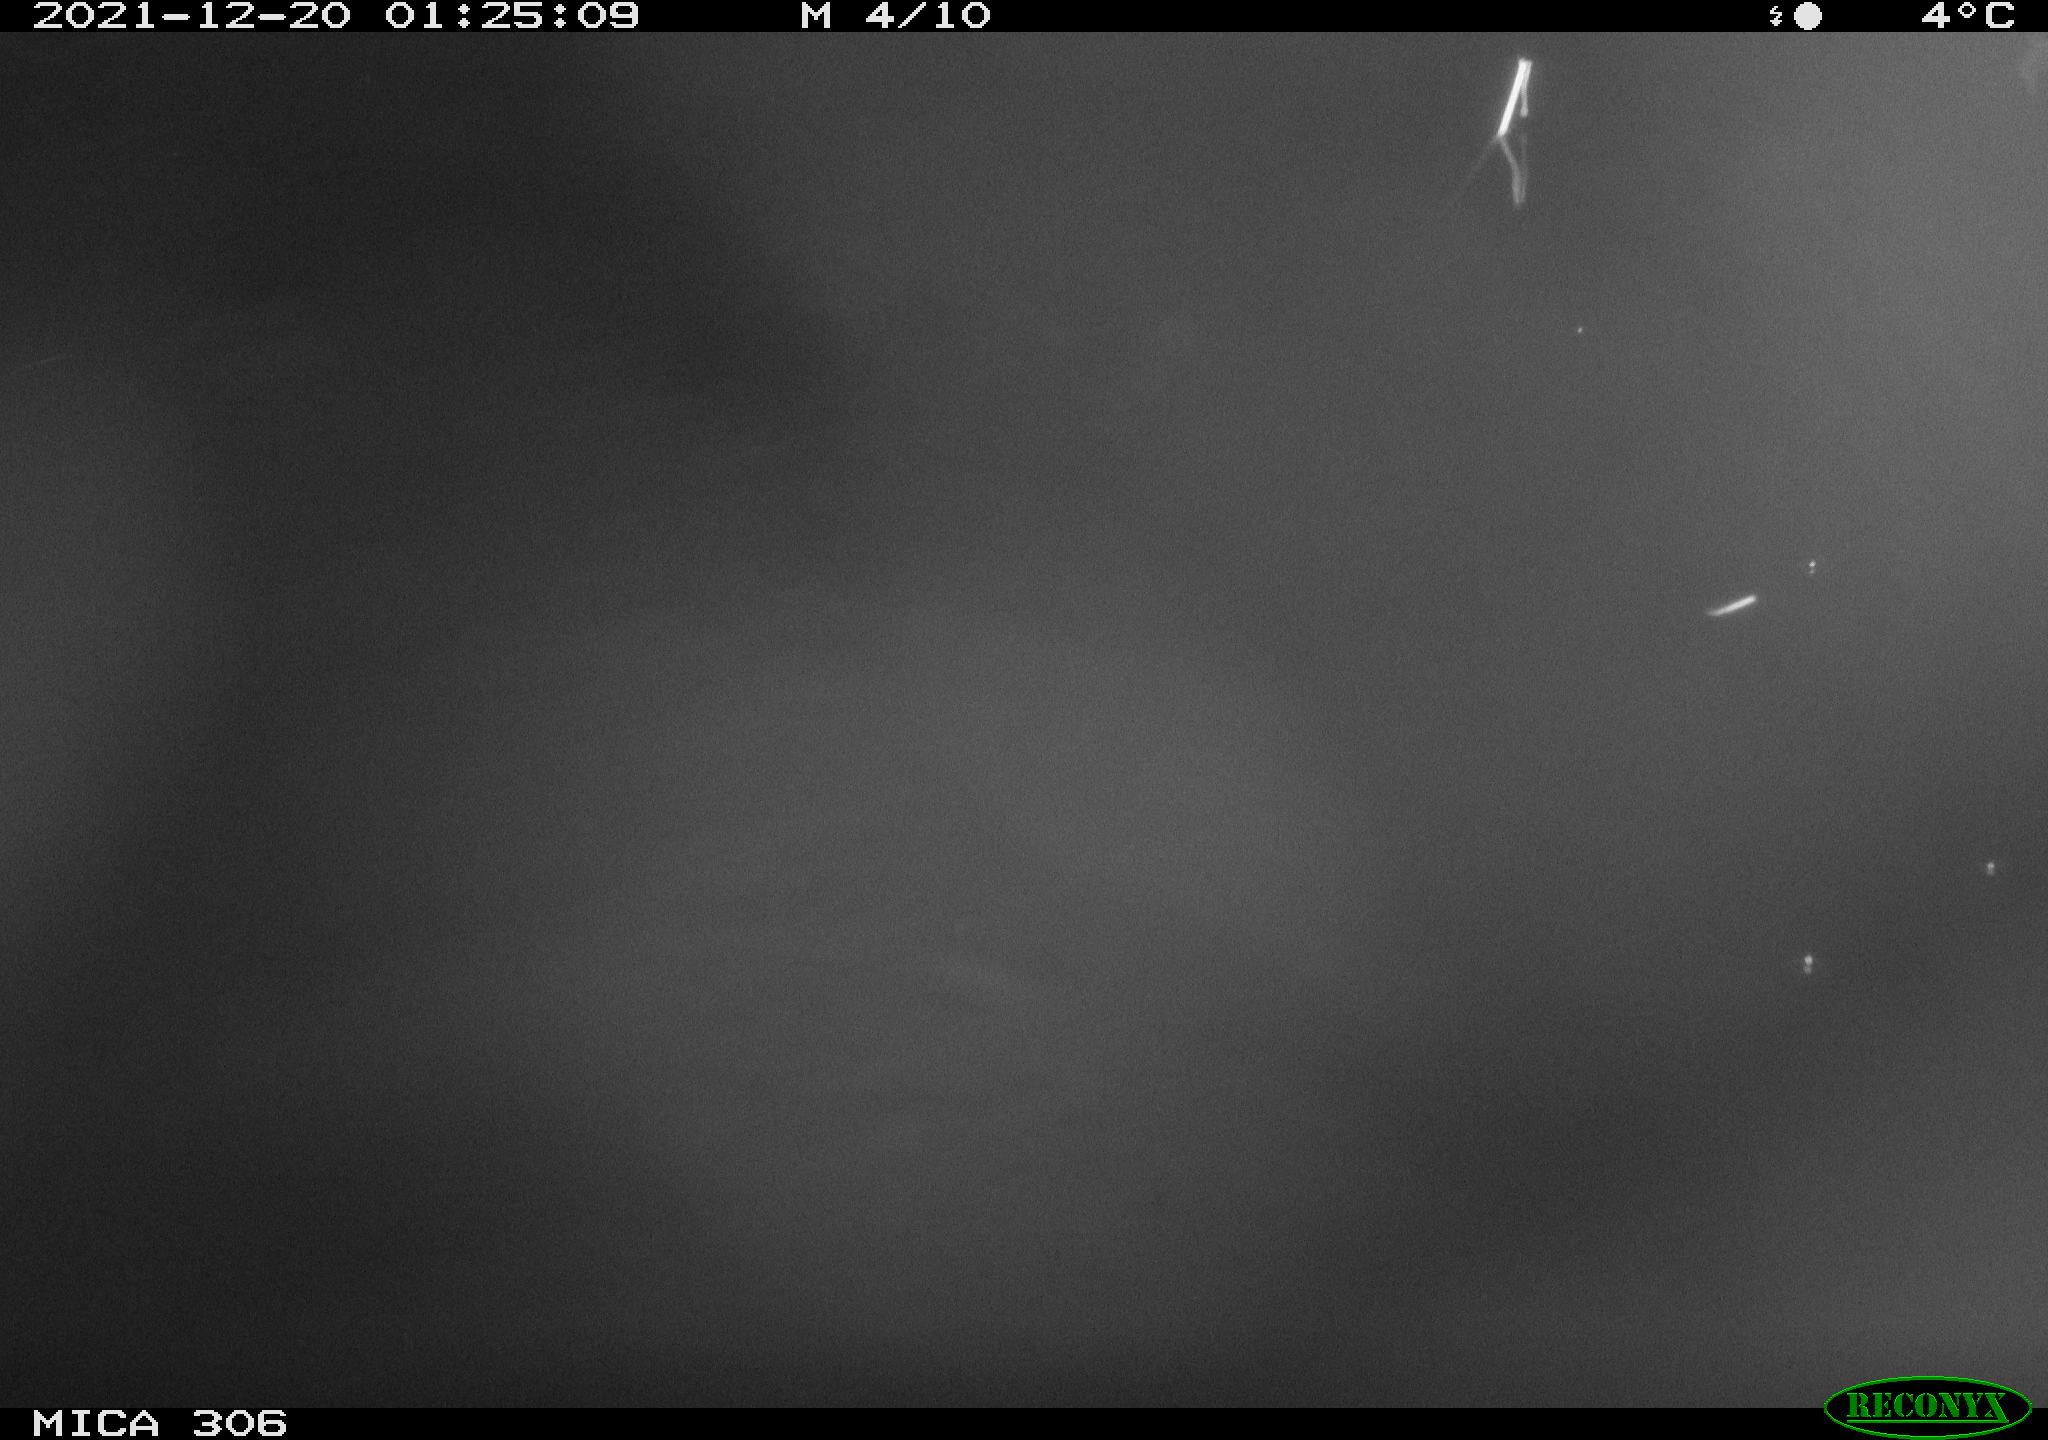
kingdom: Animalia
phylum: Chordata
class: Mammalia
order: Rodentia
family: Cricetidae
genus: Ondatra
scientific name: Ondatra zibethicus
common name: Muskrat
